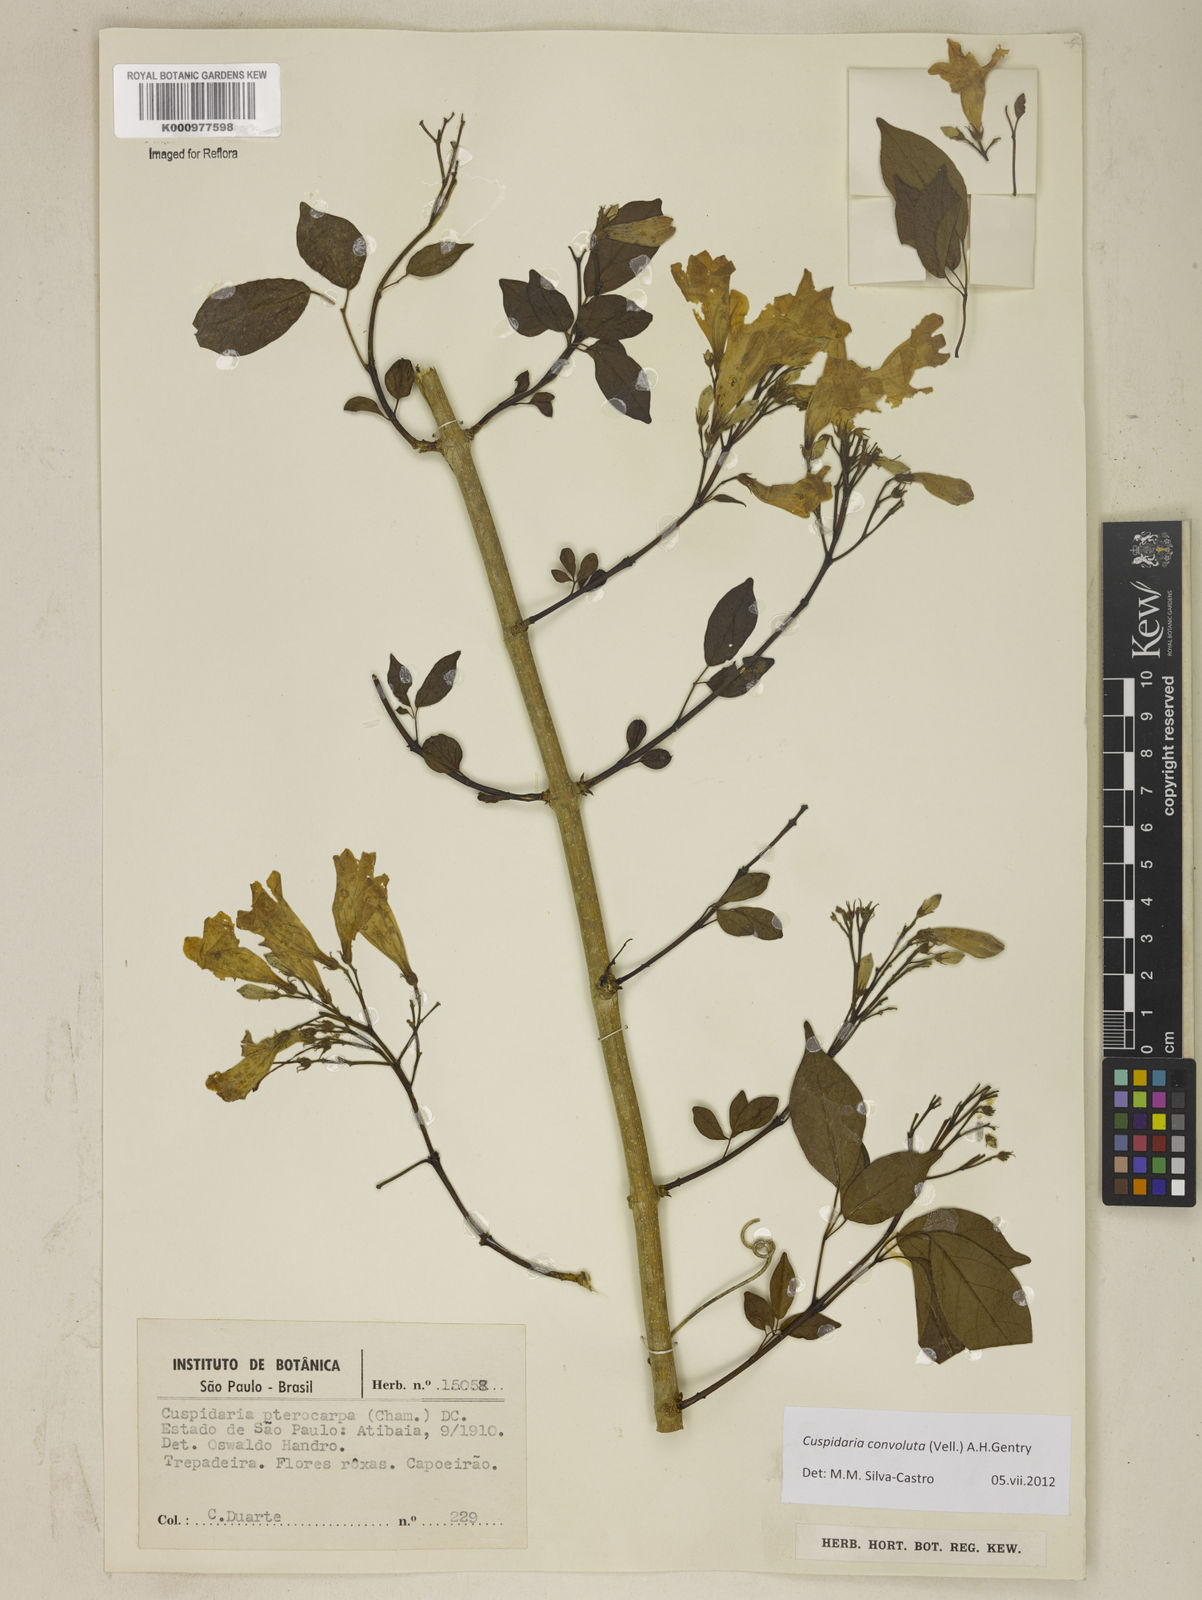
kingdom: Plantae
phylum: Tracheophyta
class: Magnoliopsida
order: Lamiales
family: Bignoniaceae
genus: Cuspidaria
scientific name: Cuspidaria convoluta
